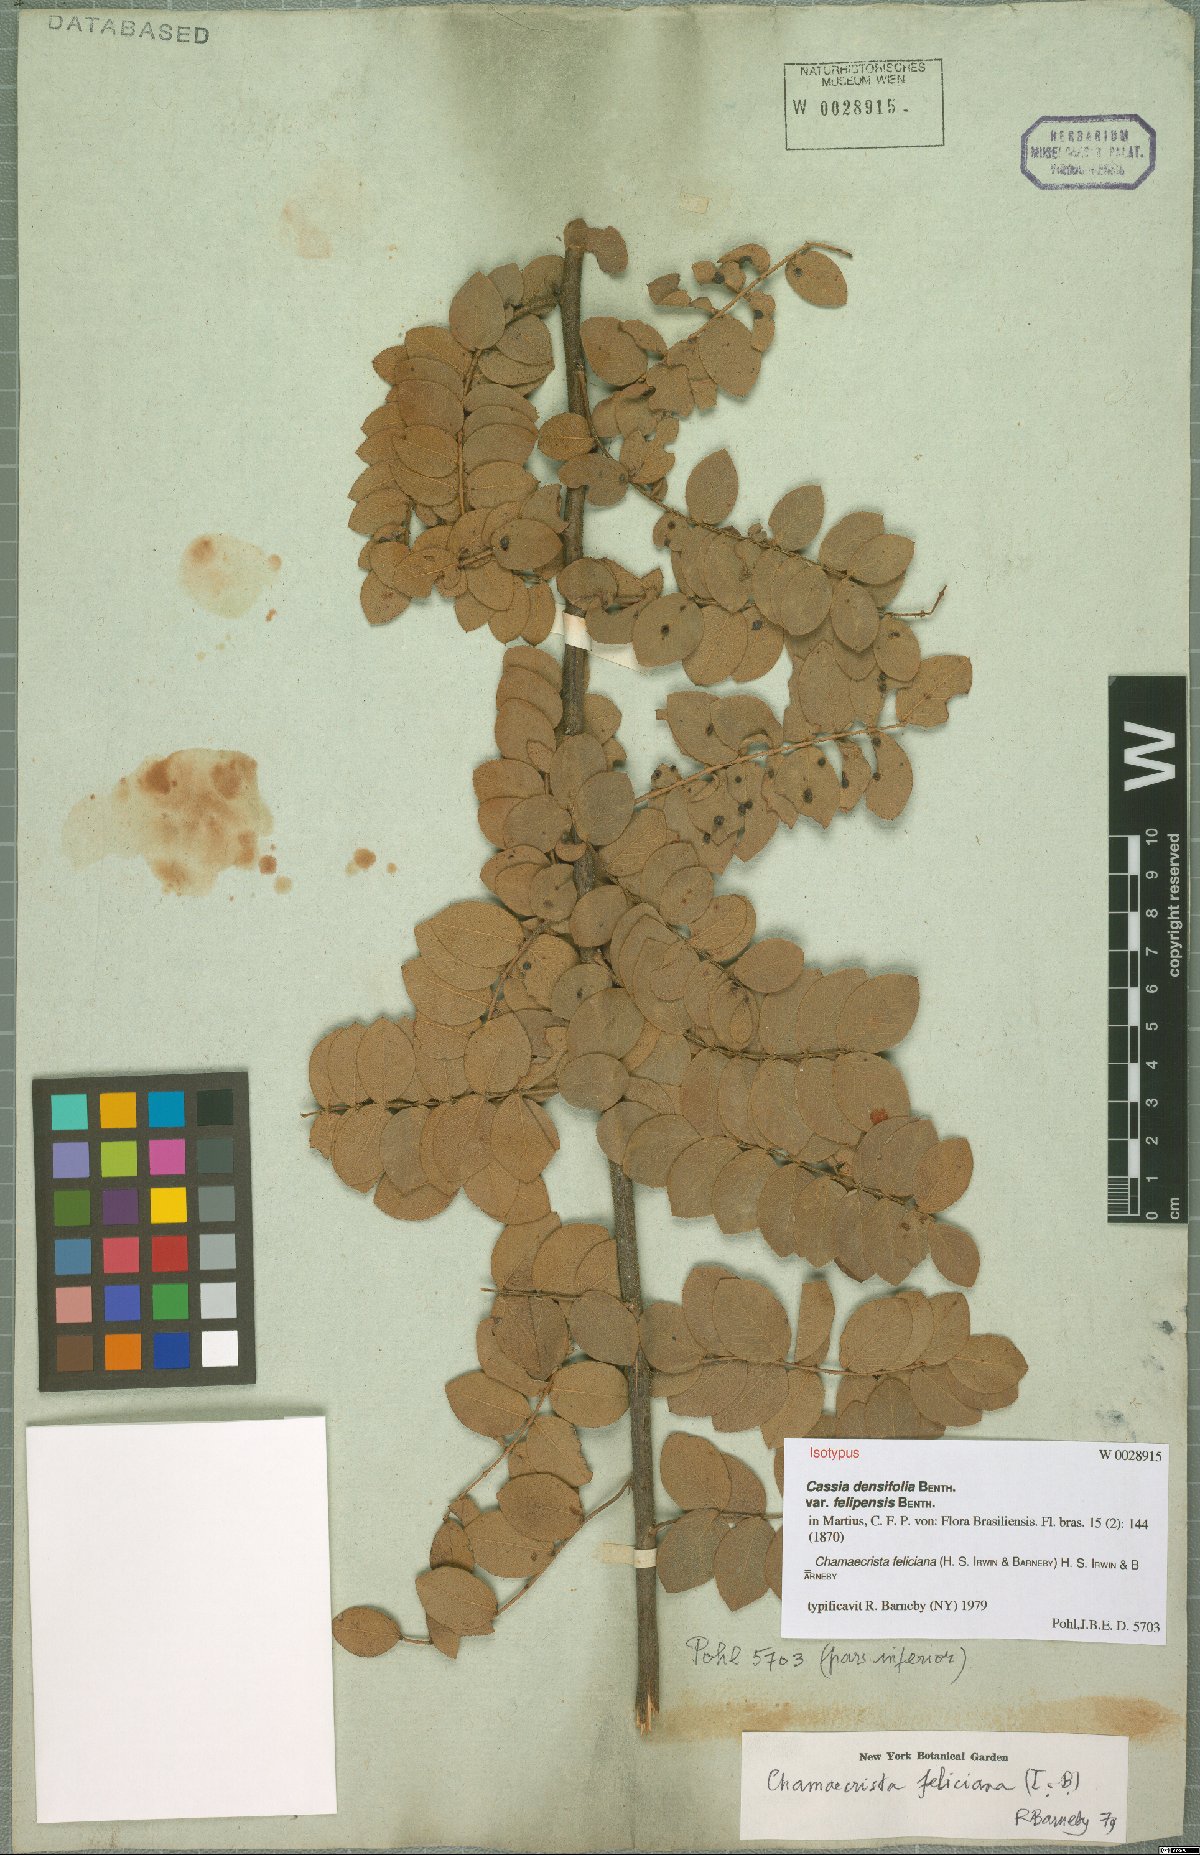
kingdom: Plantae
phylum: Tracheophyta
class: Magnoliopsida
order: Fabales
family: Fabaceae
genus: Chamaecrista
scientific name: Chamaecrista feliciana
